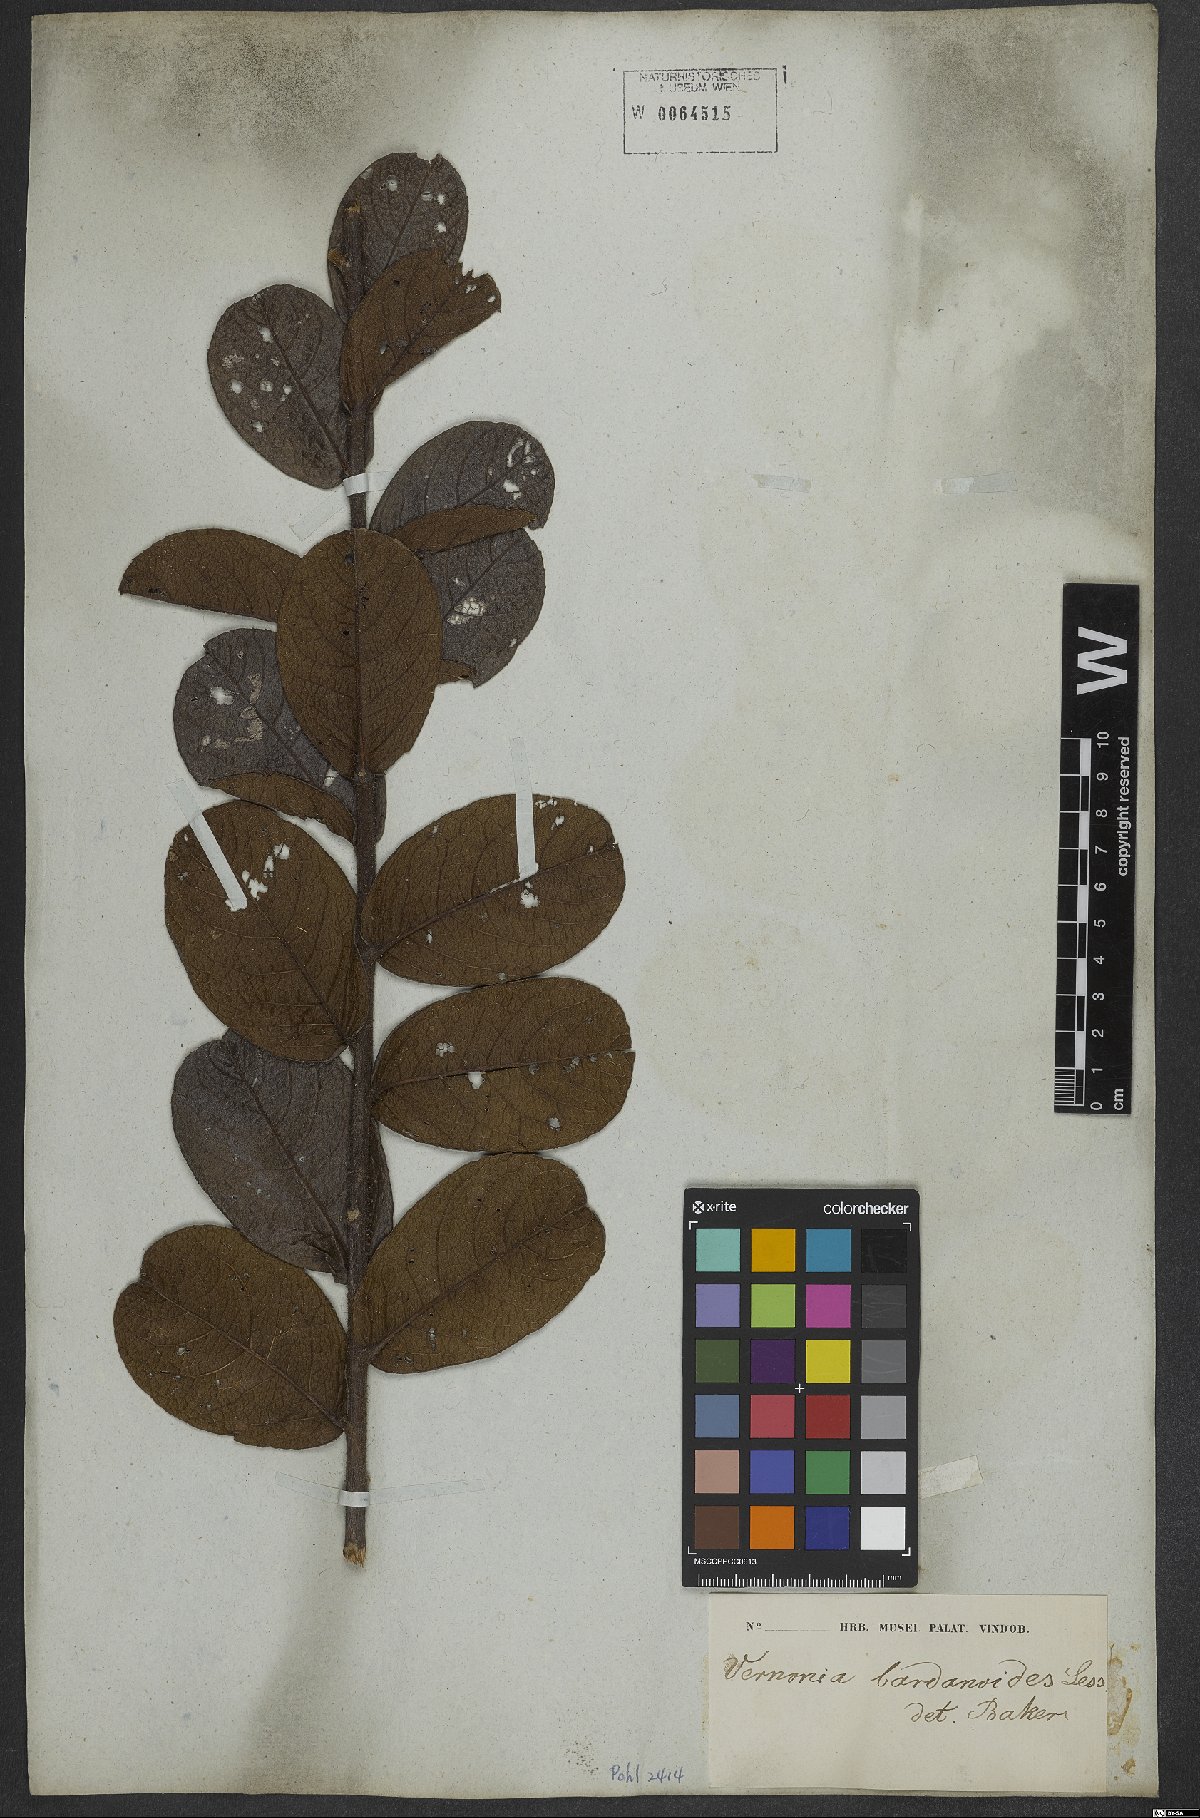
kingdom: Plantae
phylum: Tracheophyta
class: Magnoliopsida
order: Asterales
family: Asteraceae
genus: Lessingianthus
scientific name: Lessingianthus bardanioides
